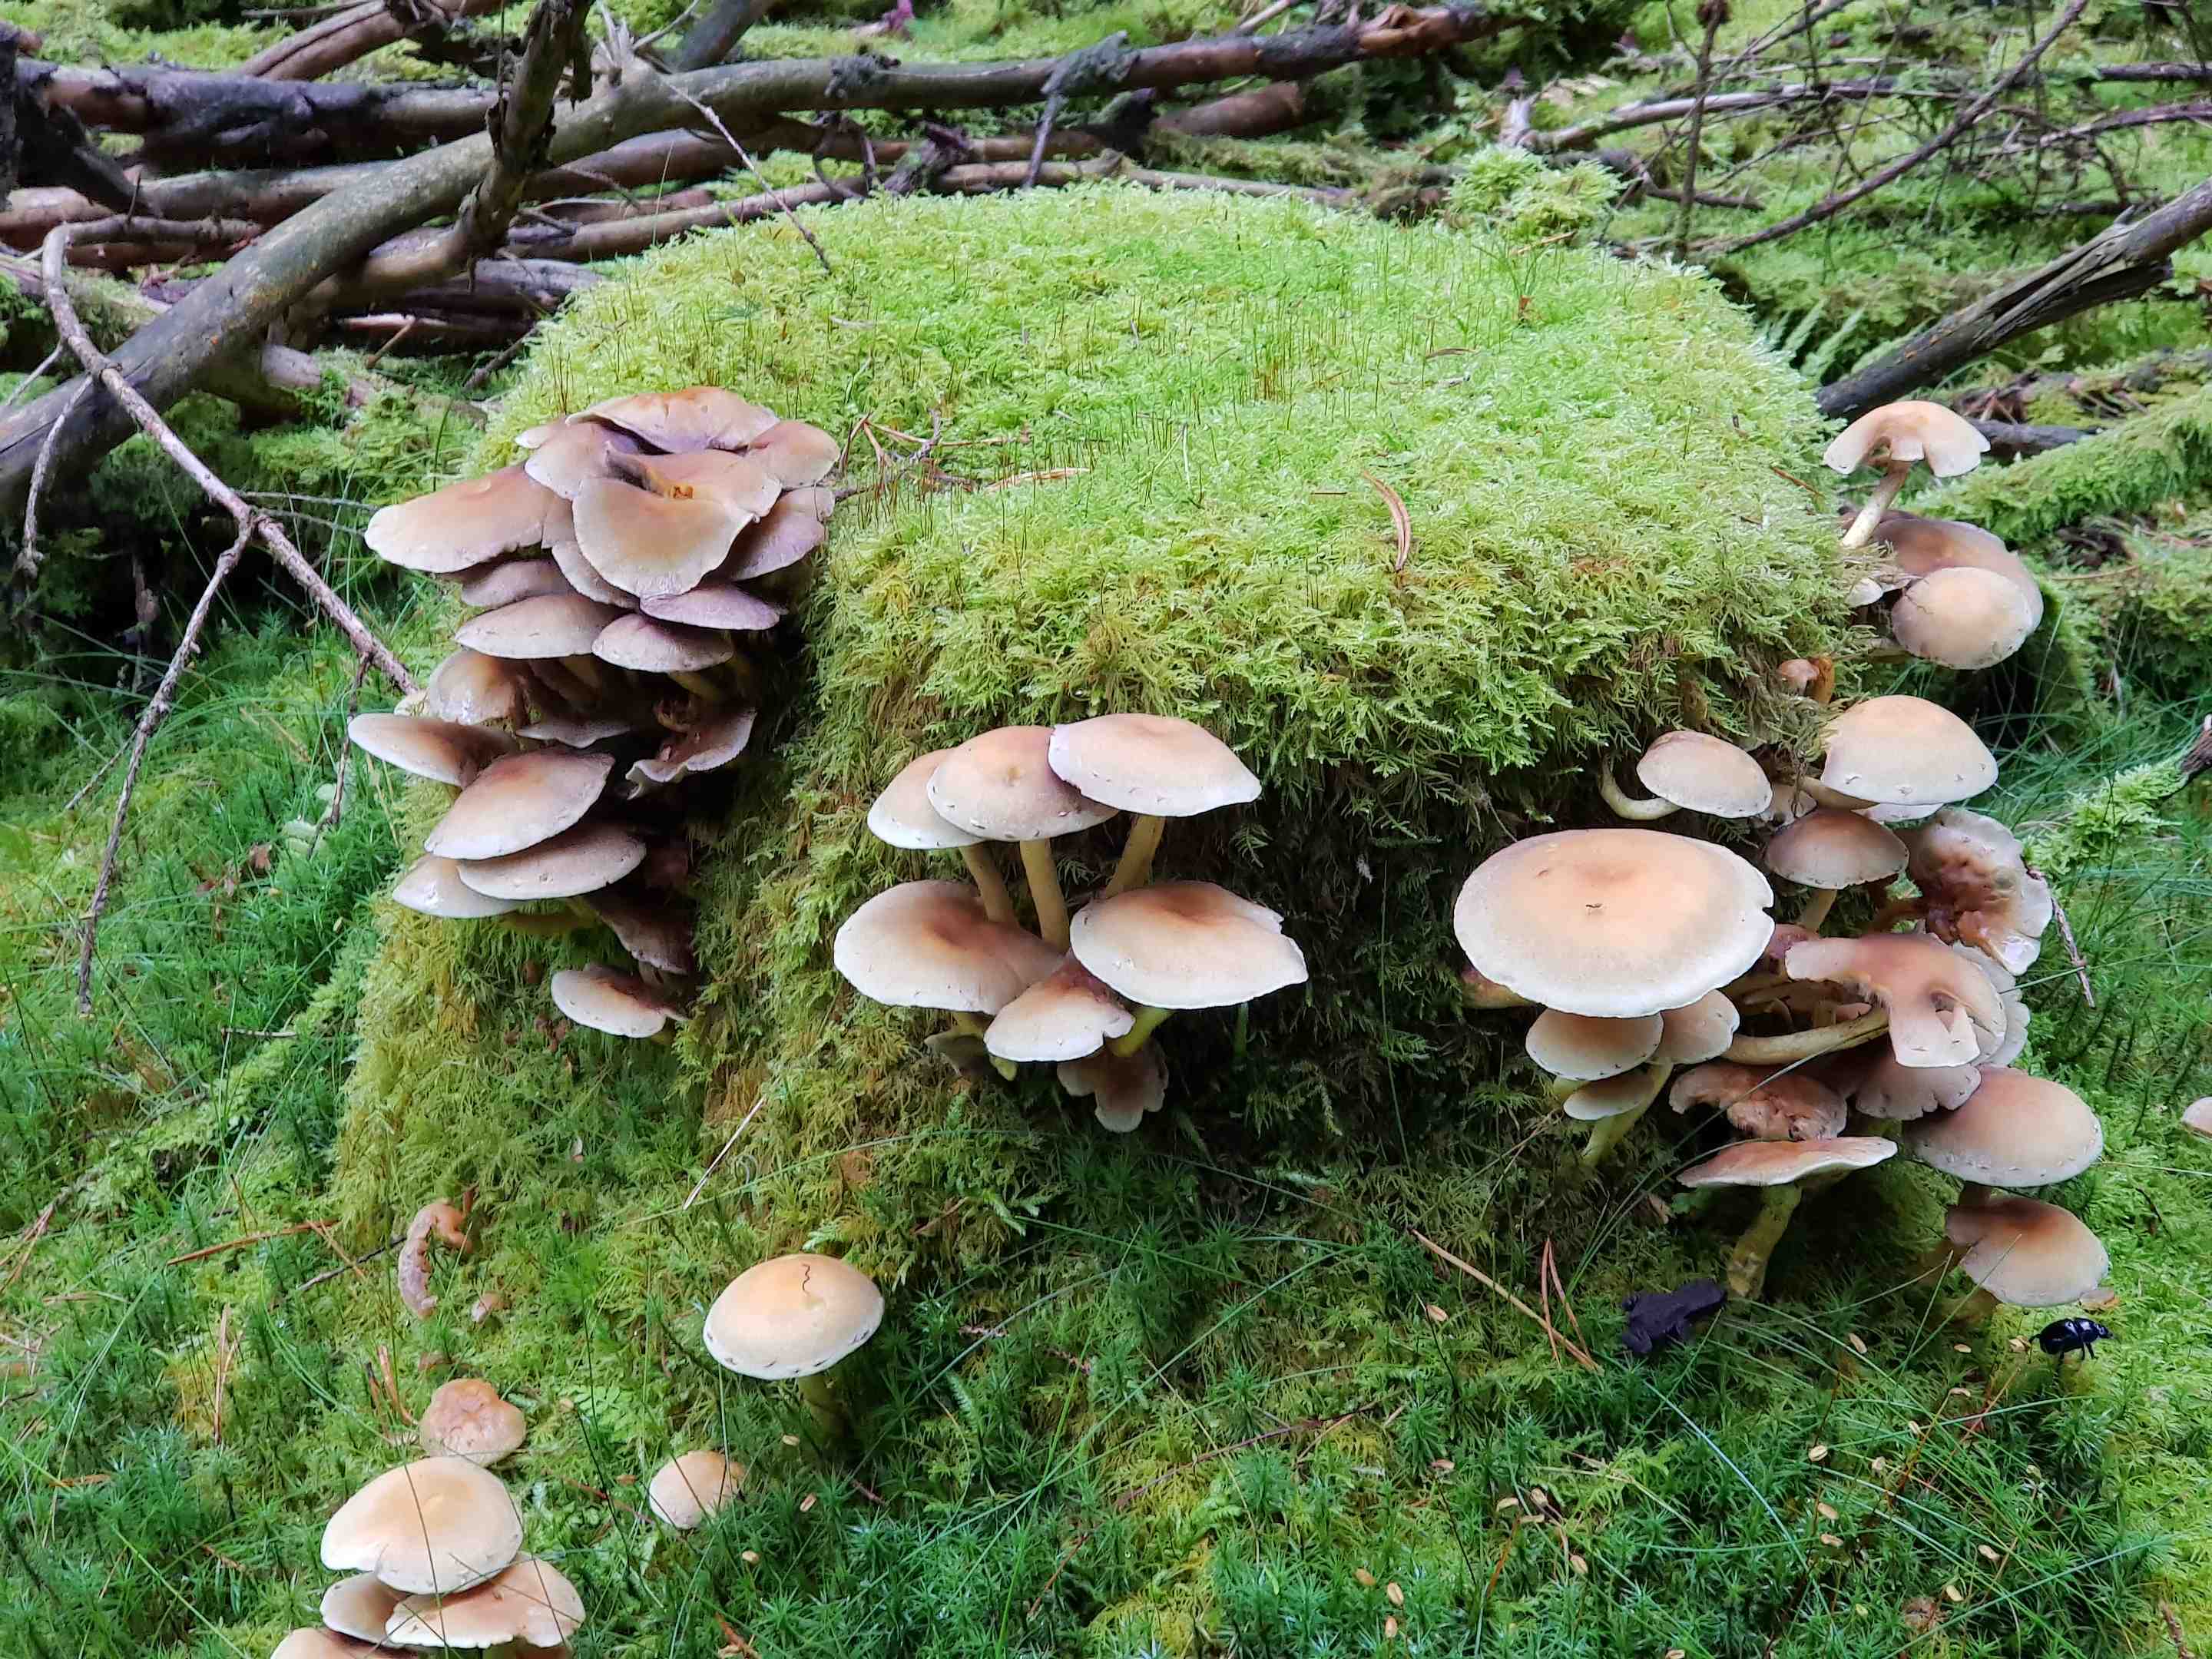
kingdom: Fungi
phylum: Basidiomycota
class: Agaricomycetes
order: Agaricales
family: Strophariaceae
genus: Hypholoma
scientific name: Hypholoma
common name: svovlhat
